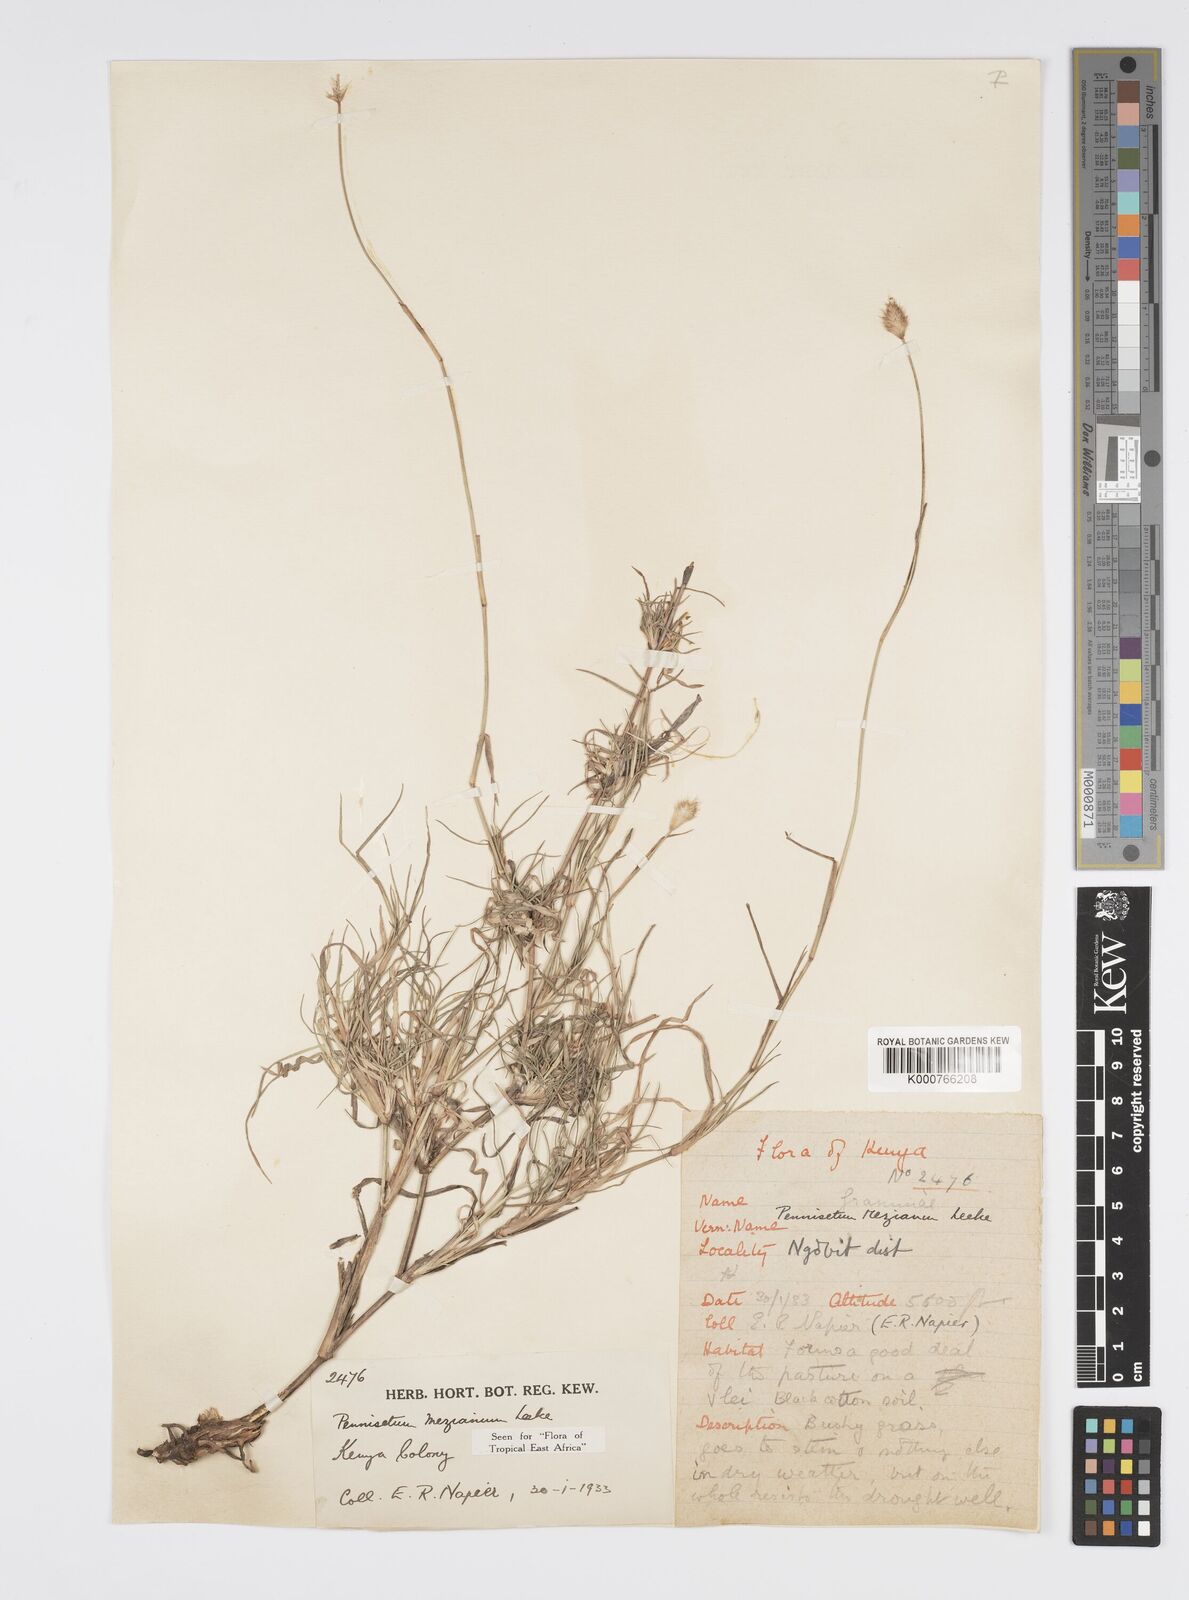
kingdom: Plantae
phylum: Tracheophyta
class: Liliopsida
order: Poales
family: Poaceae
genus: Cenchrus
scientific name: Cenchrus mezianus
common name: Bamboo grass
